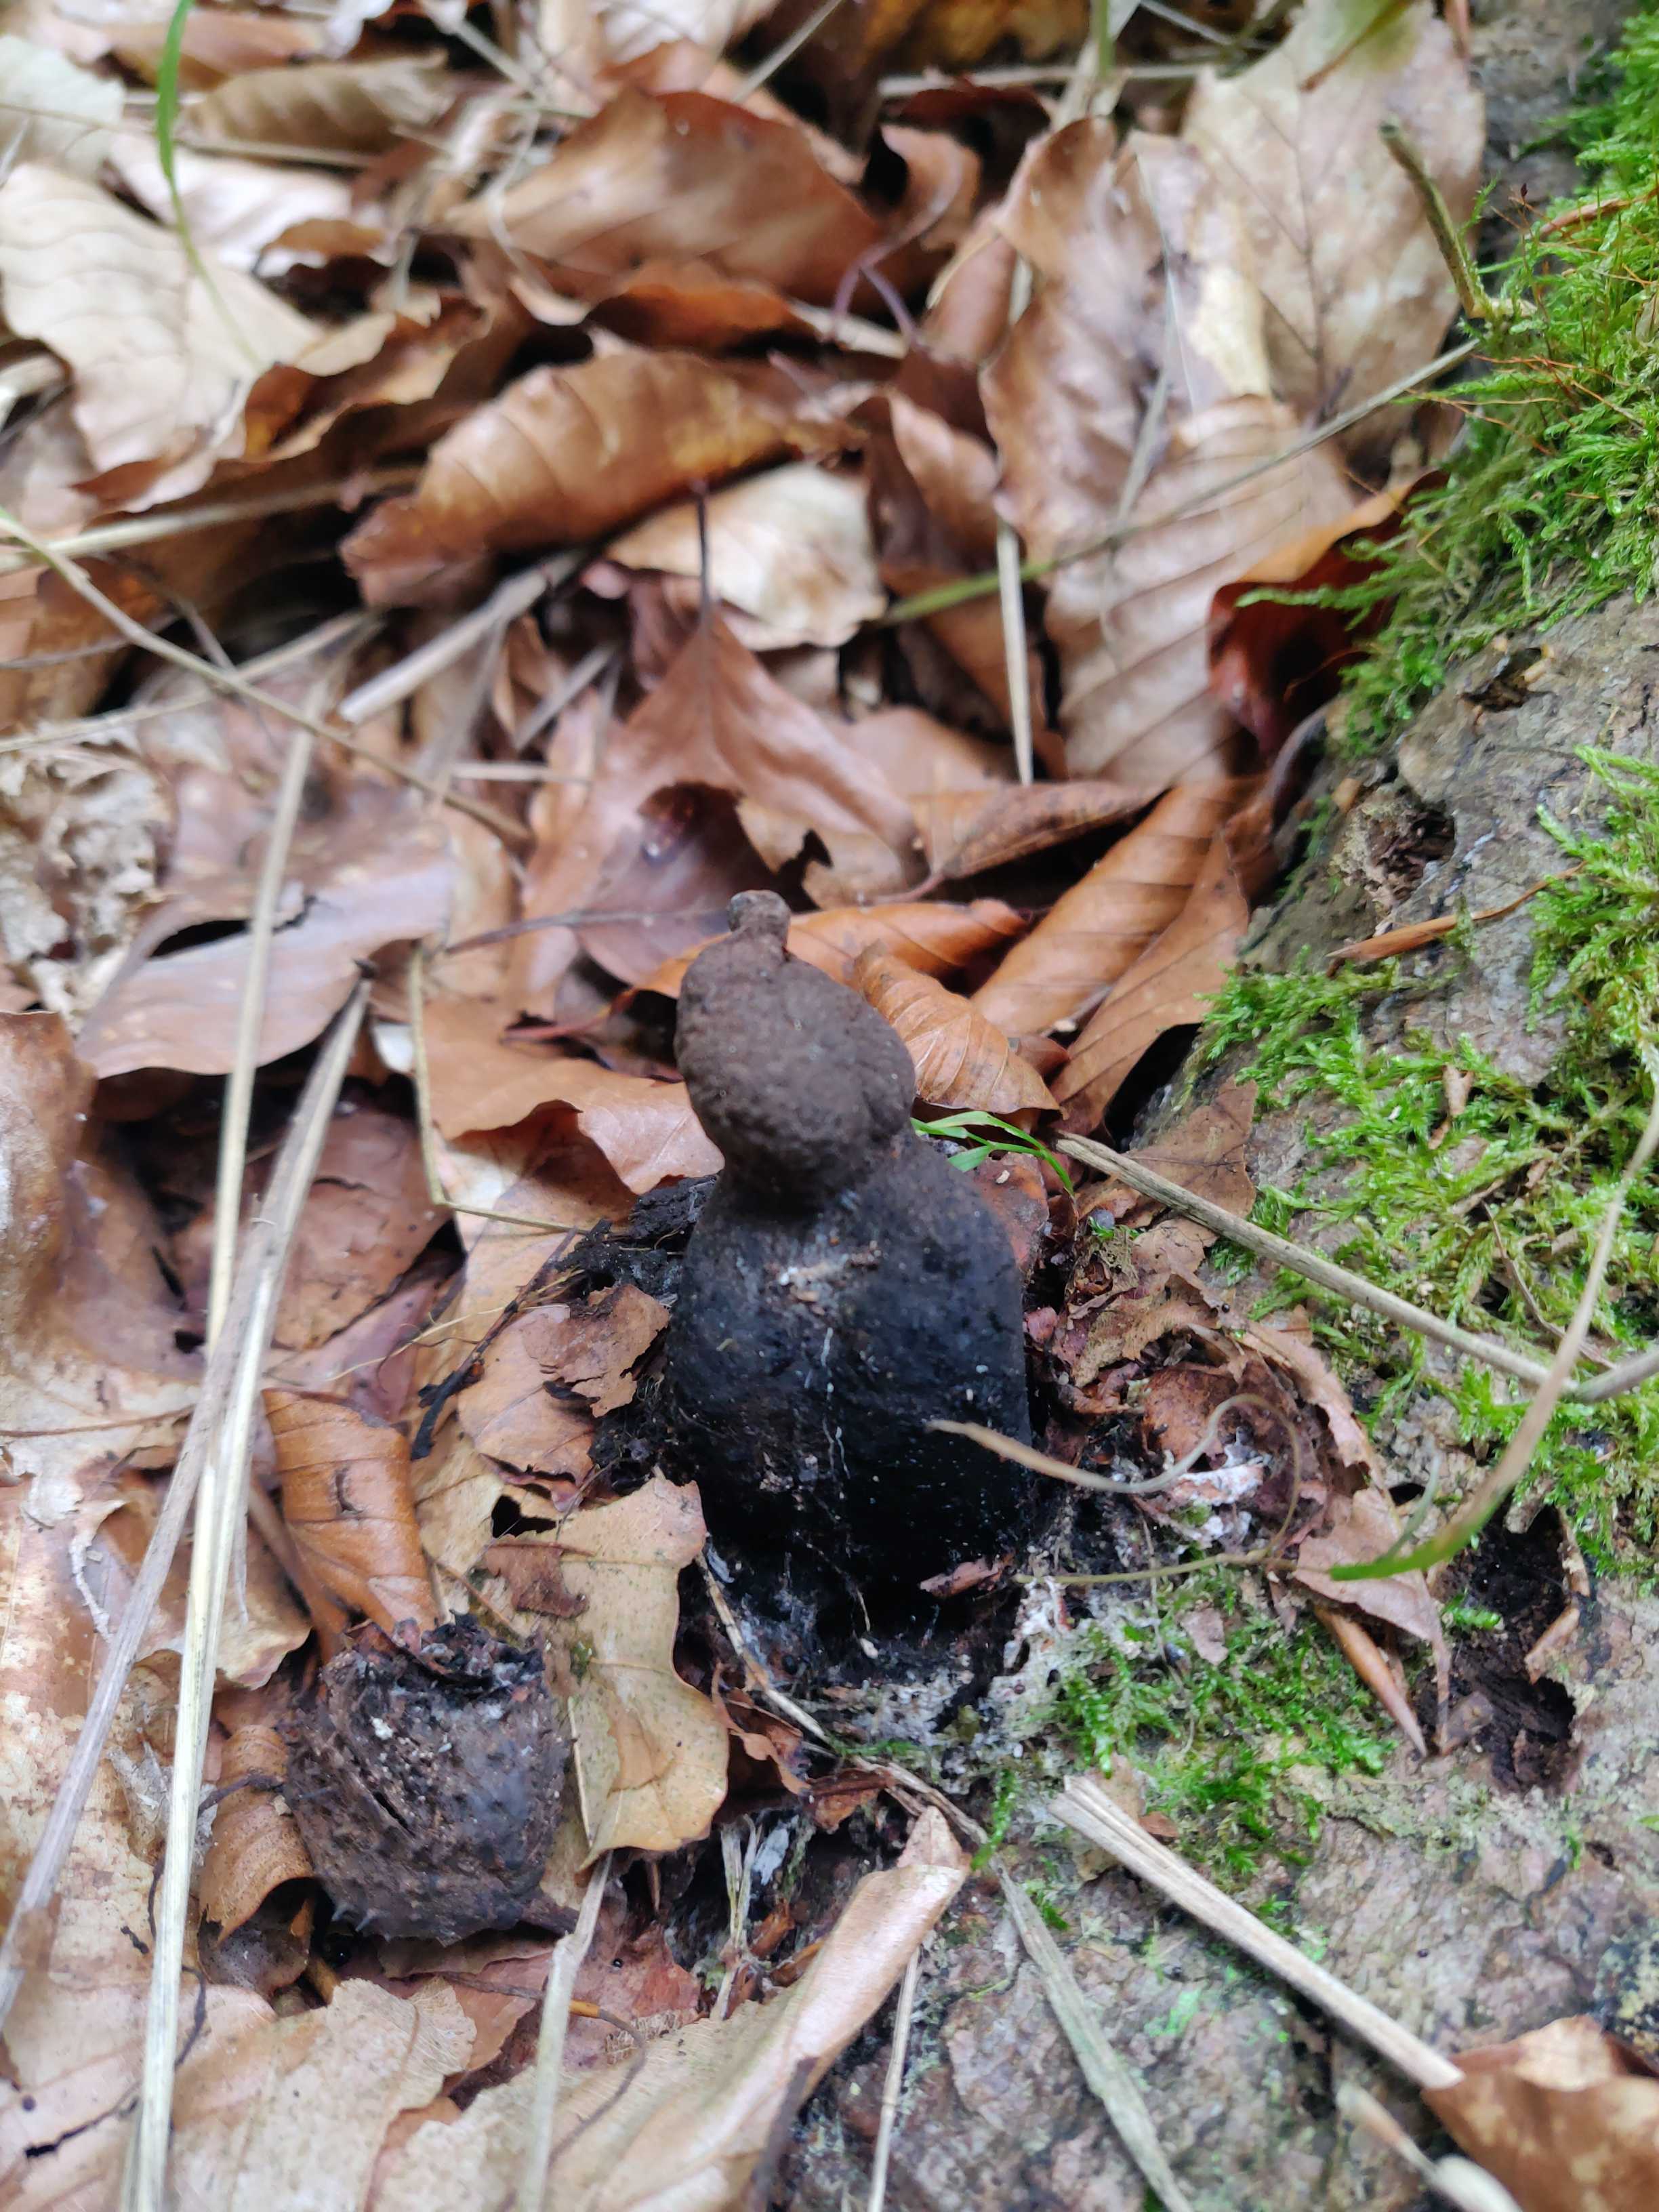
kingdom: Fungi
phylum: Ascomycota
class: Sordariomycetes
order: Xylariales
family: Xylariaceae
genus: Xylaria
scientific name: Xylaria polymorpha
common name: kølle-stødsvamp
